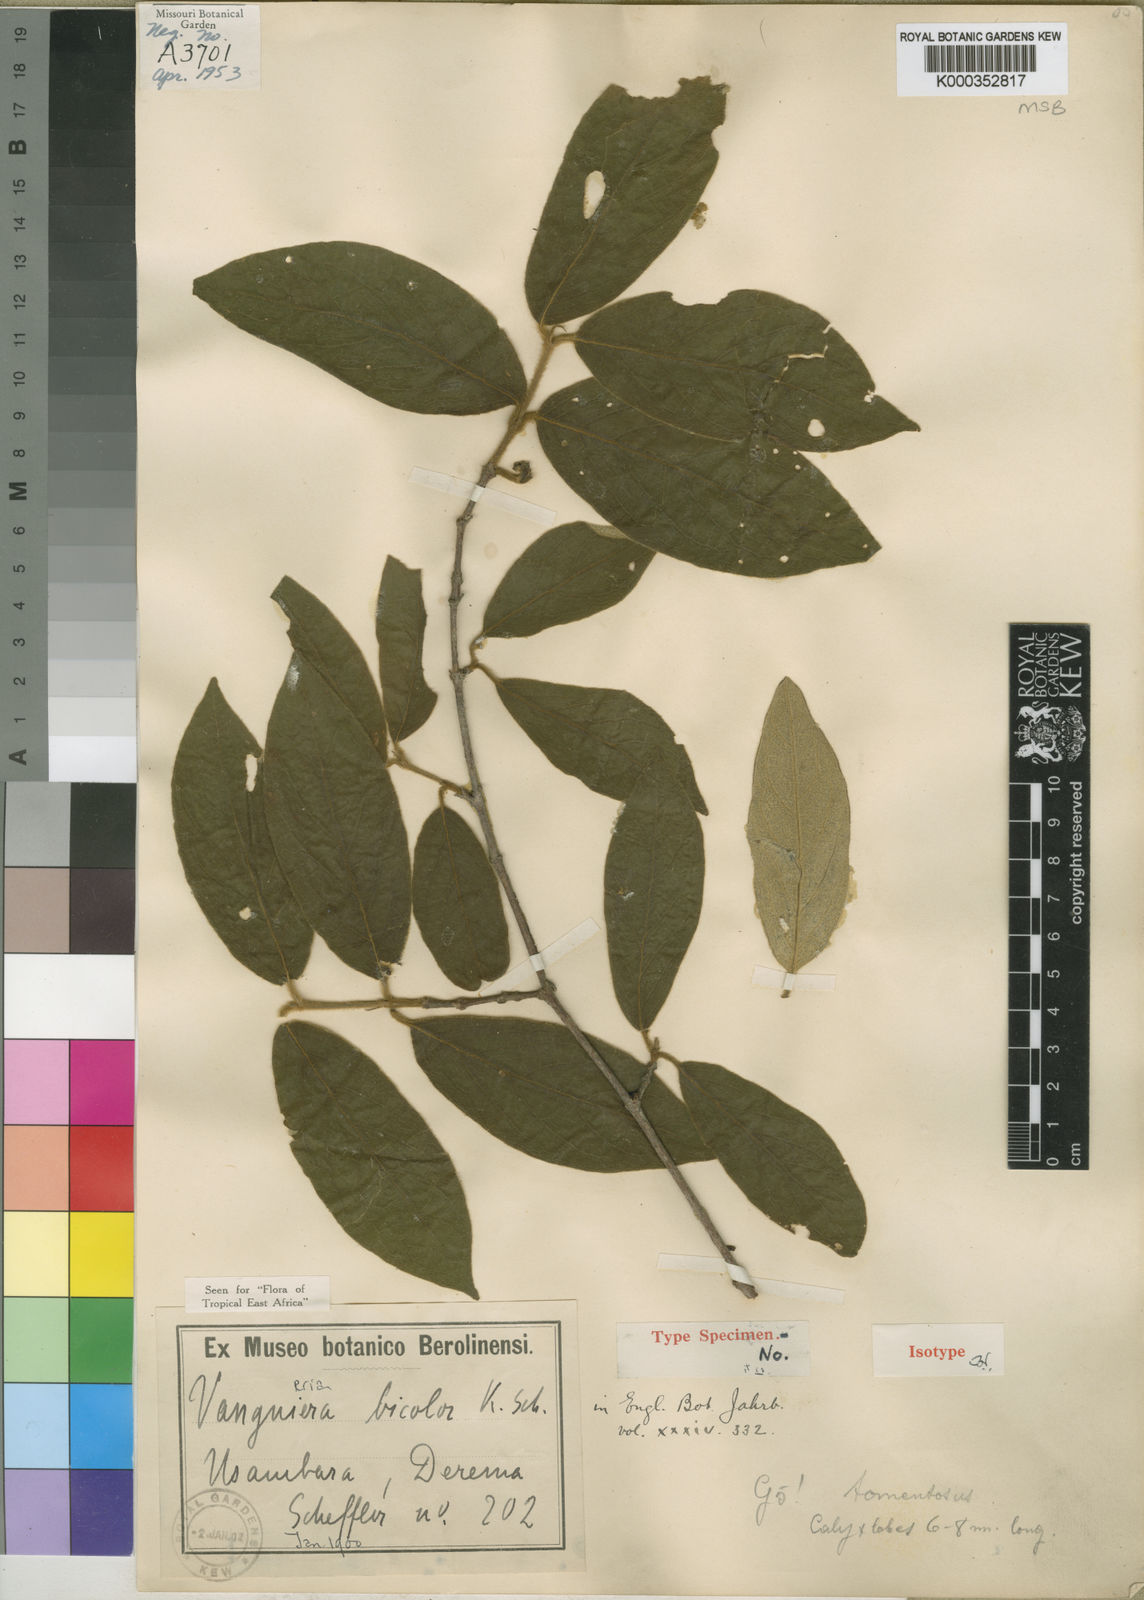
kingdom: Plantae
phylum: Tracheophyta
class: Magnoliopsida
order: Gentianales
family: Rubiaceae
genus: Vangueria
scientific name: Vangueria bicolor
